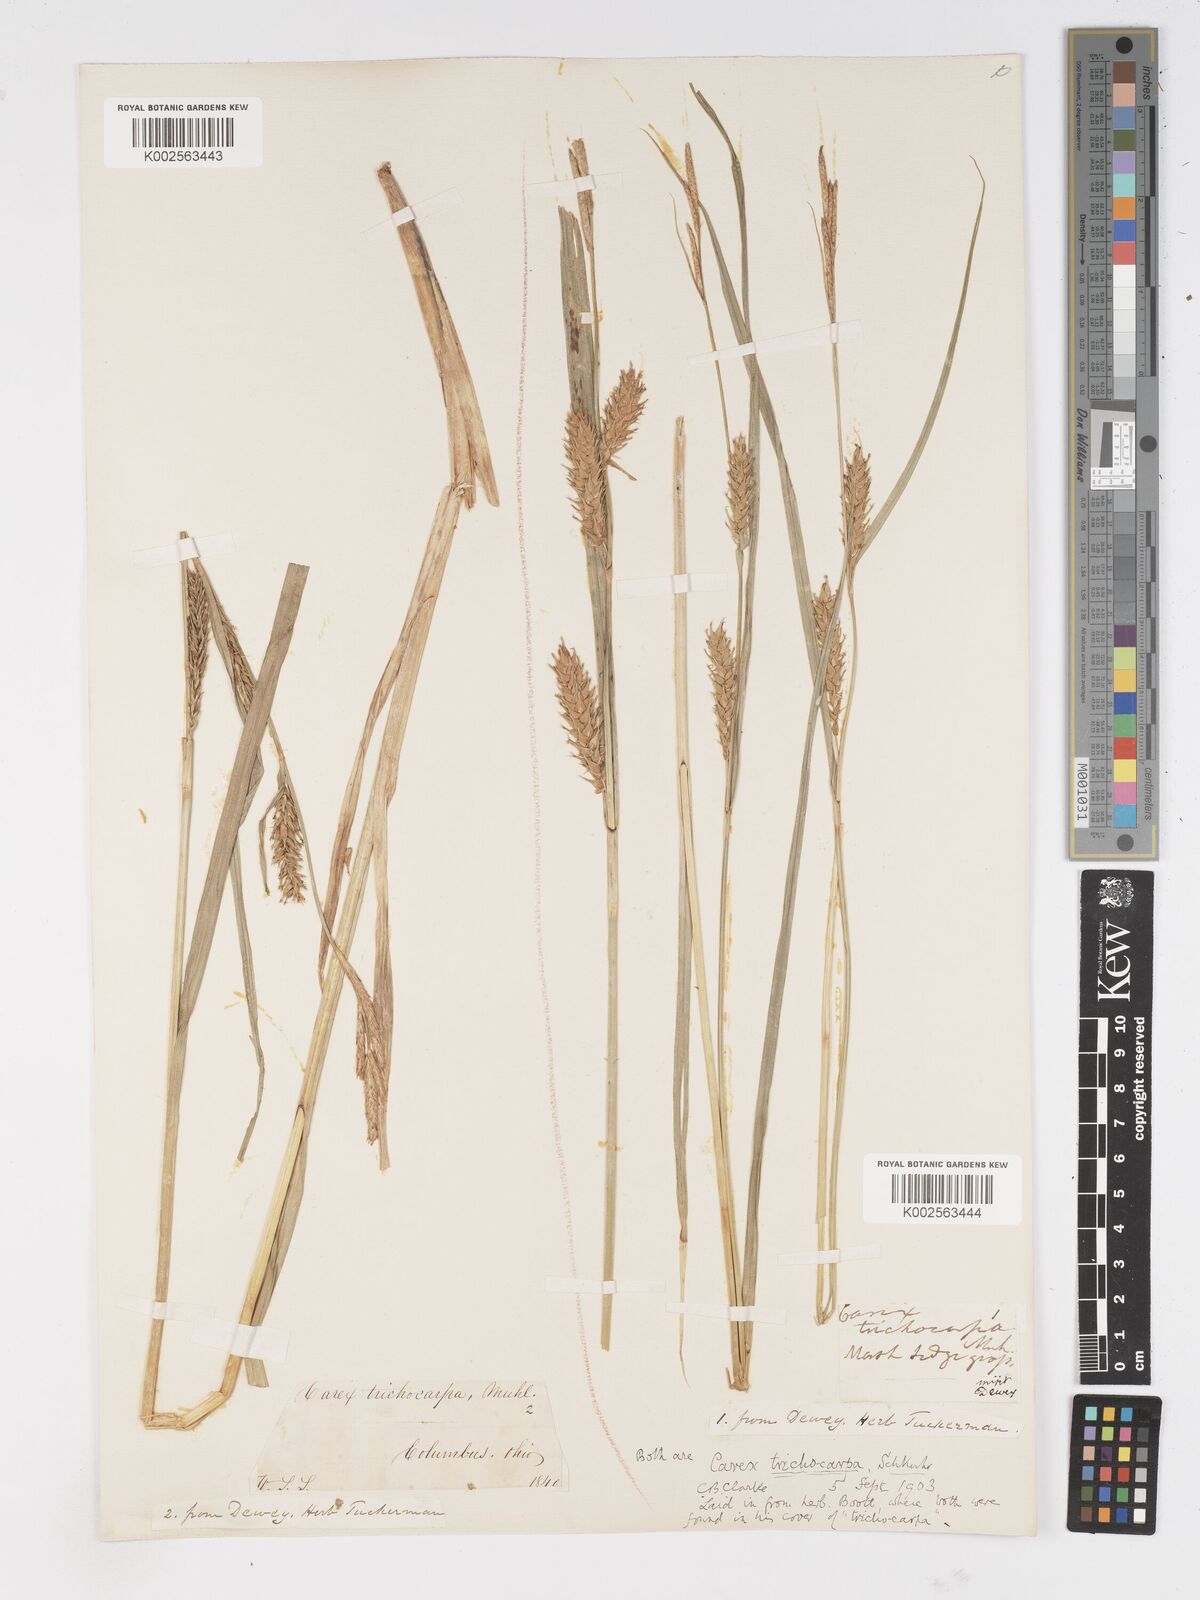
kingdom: Plantae
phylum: Tracheophyta
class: Liliopsida
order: Poales
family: Cyperaceae
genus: Carex
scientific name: Carex trichocarpa
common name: Hairy-fruited lake sedge
